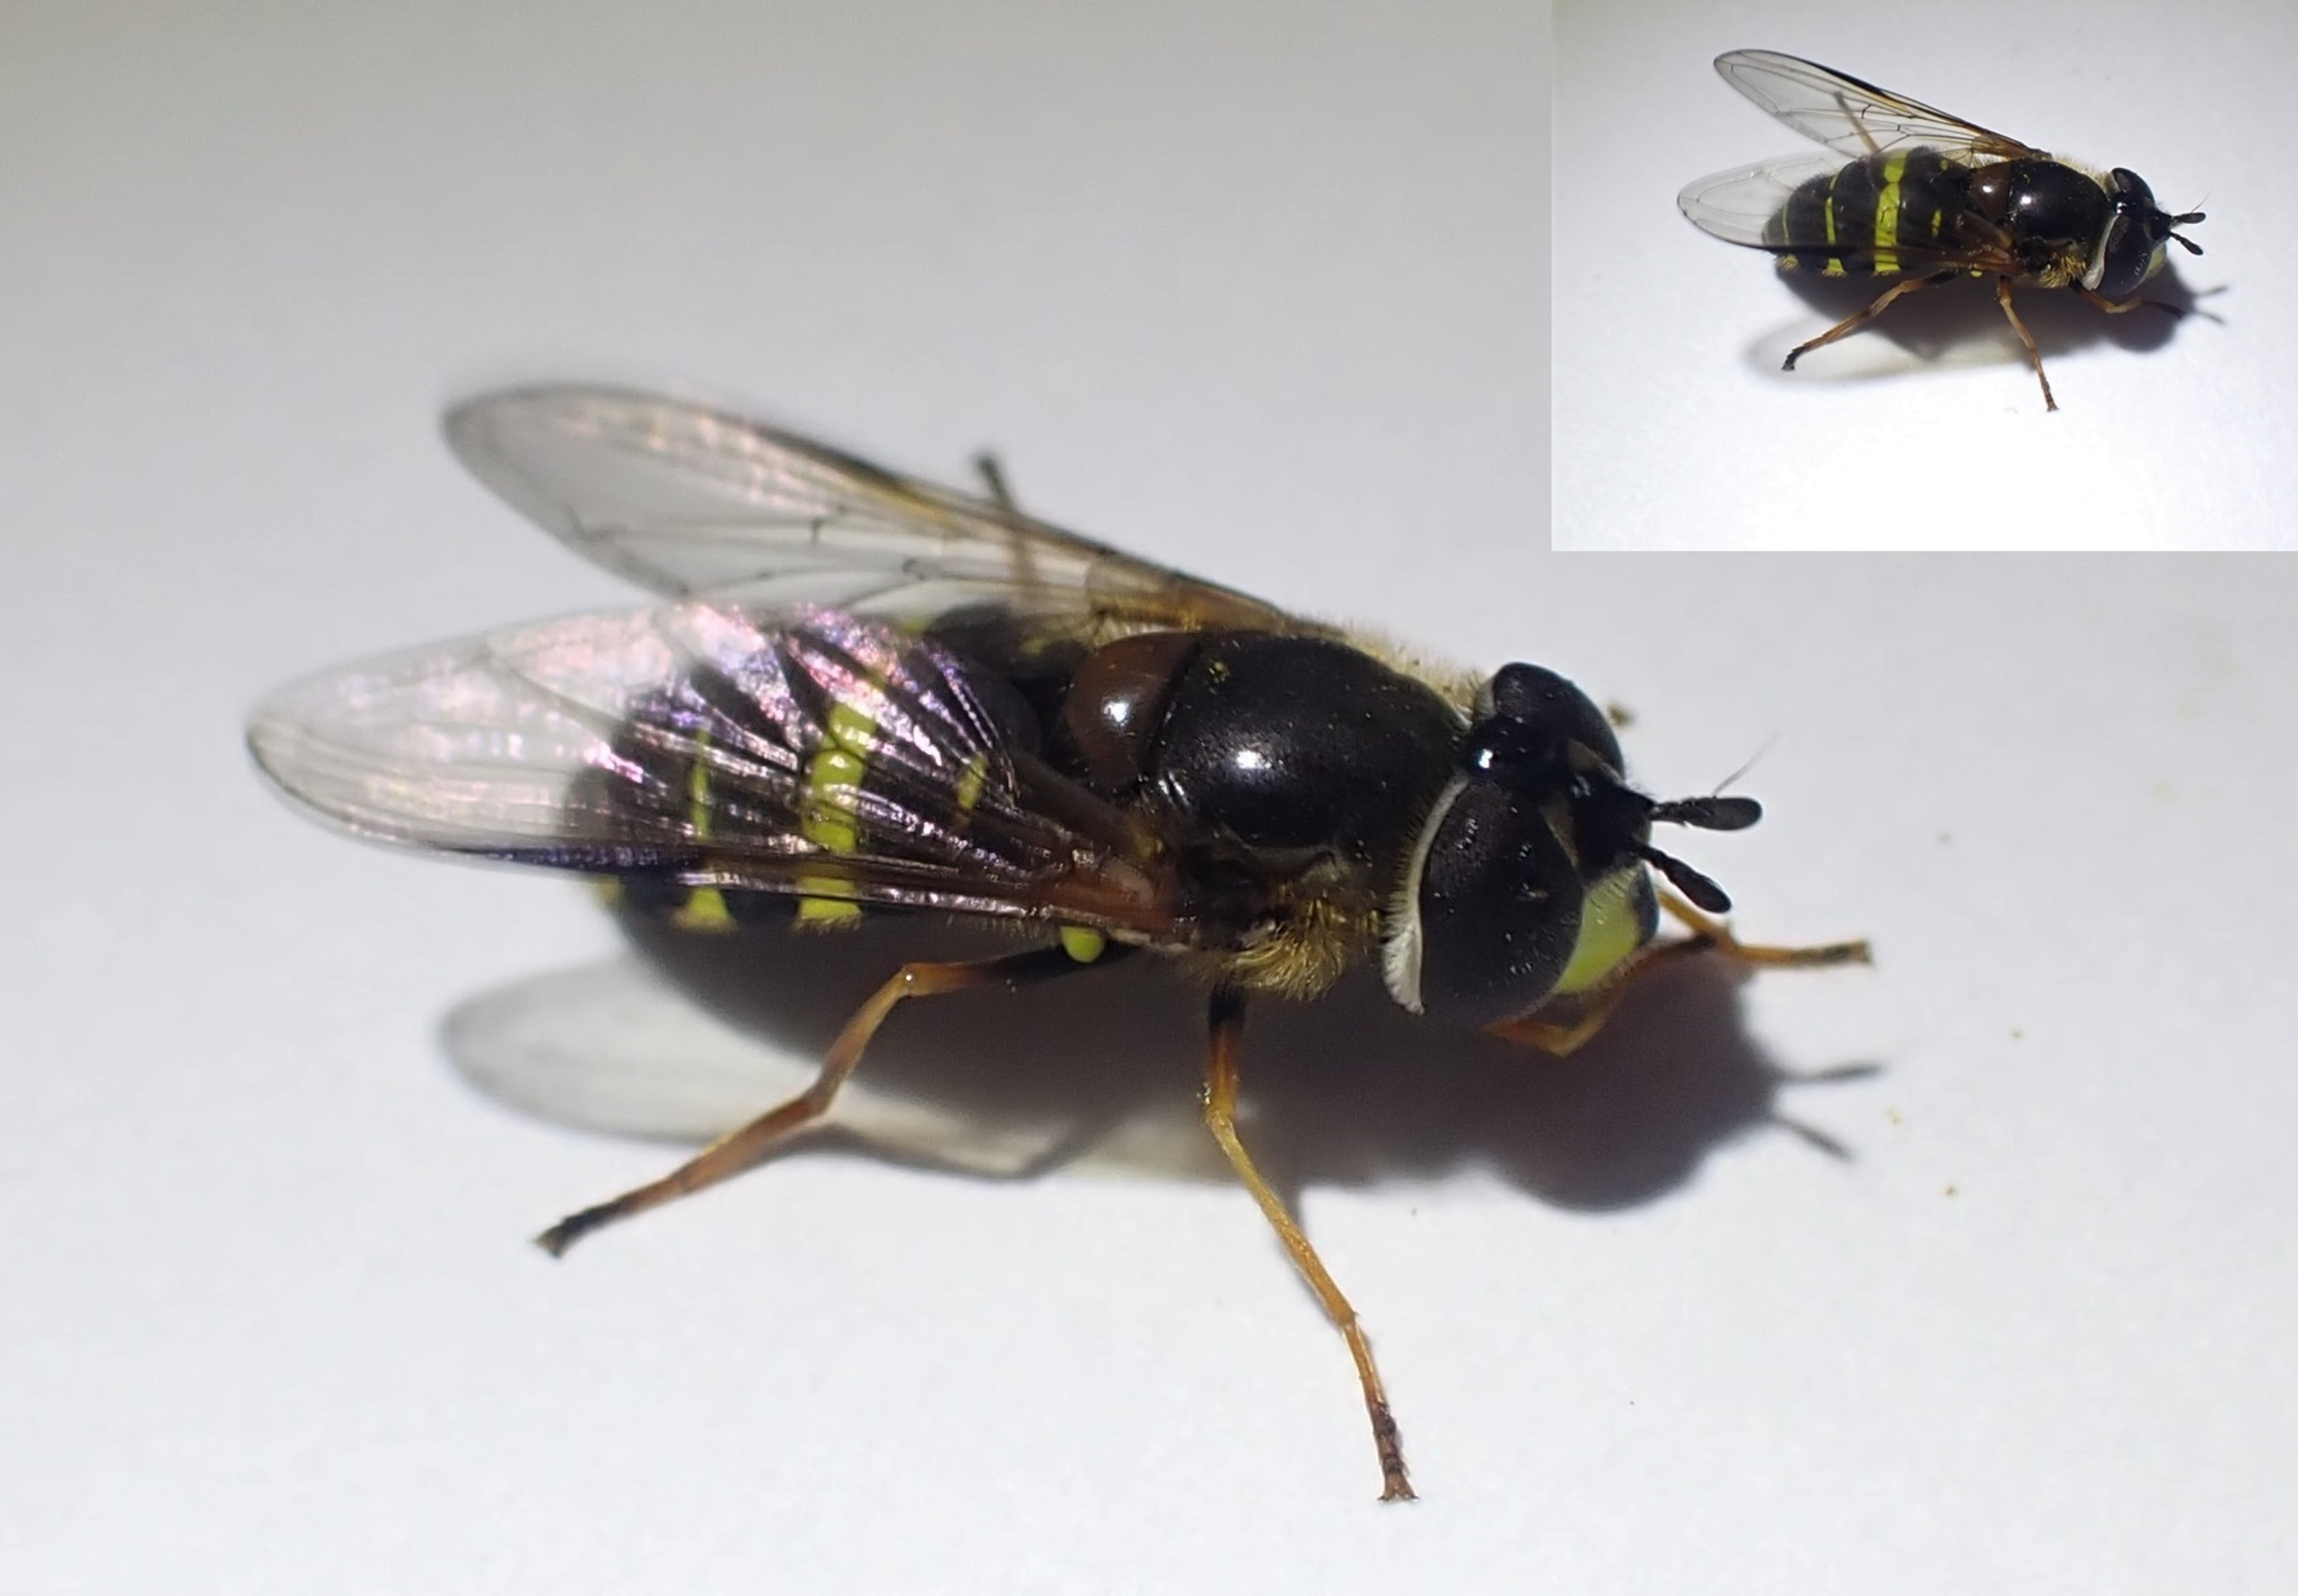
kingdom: Animalia
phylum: Arthropoda
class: Insecta
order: Diptera
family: Syrphidae
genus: Dasysyrphus
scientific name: Dasysyrphus tricinctus
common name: Bredbåndet skovsvirreflue
